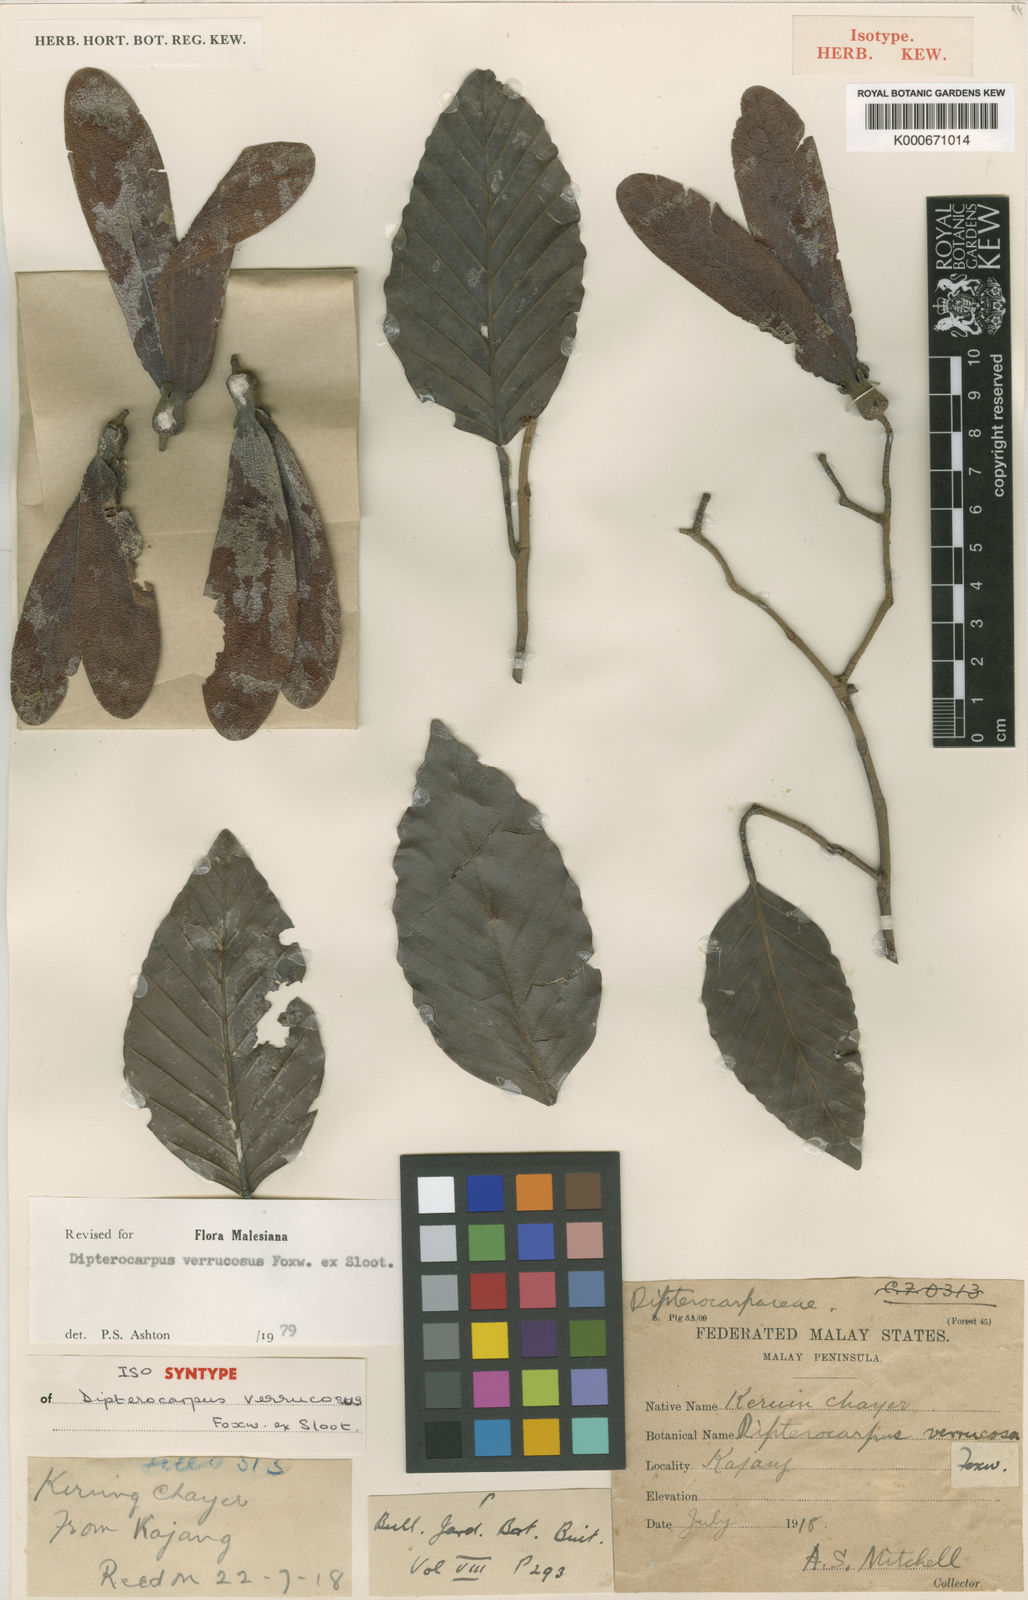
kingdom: Plantae
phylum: Tracheophyta
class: Magnoliopsida
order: Malvales
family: Dipterocarpaceae
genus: Dipterocarpus
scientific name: Dipterocarpus verrucosus
